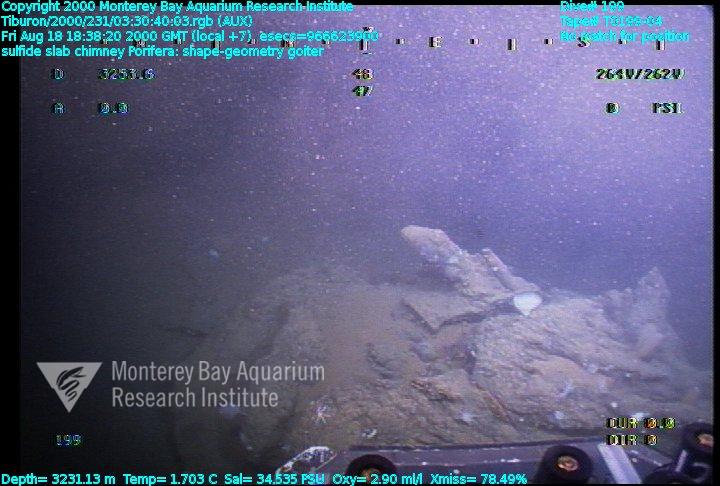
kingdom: Animalia
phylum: Porifera
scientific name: Porifera
